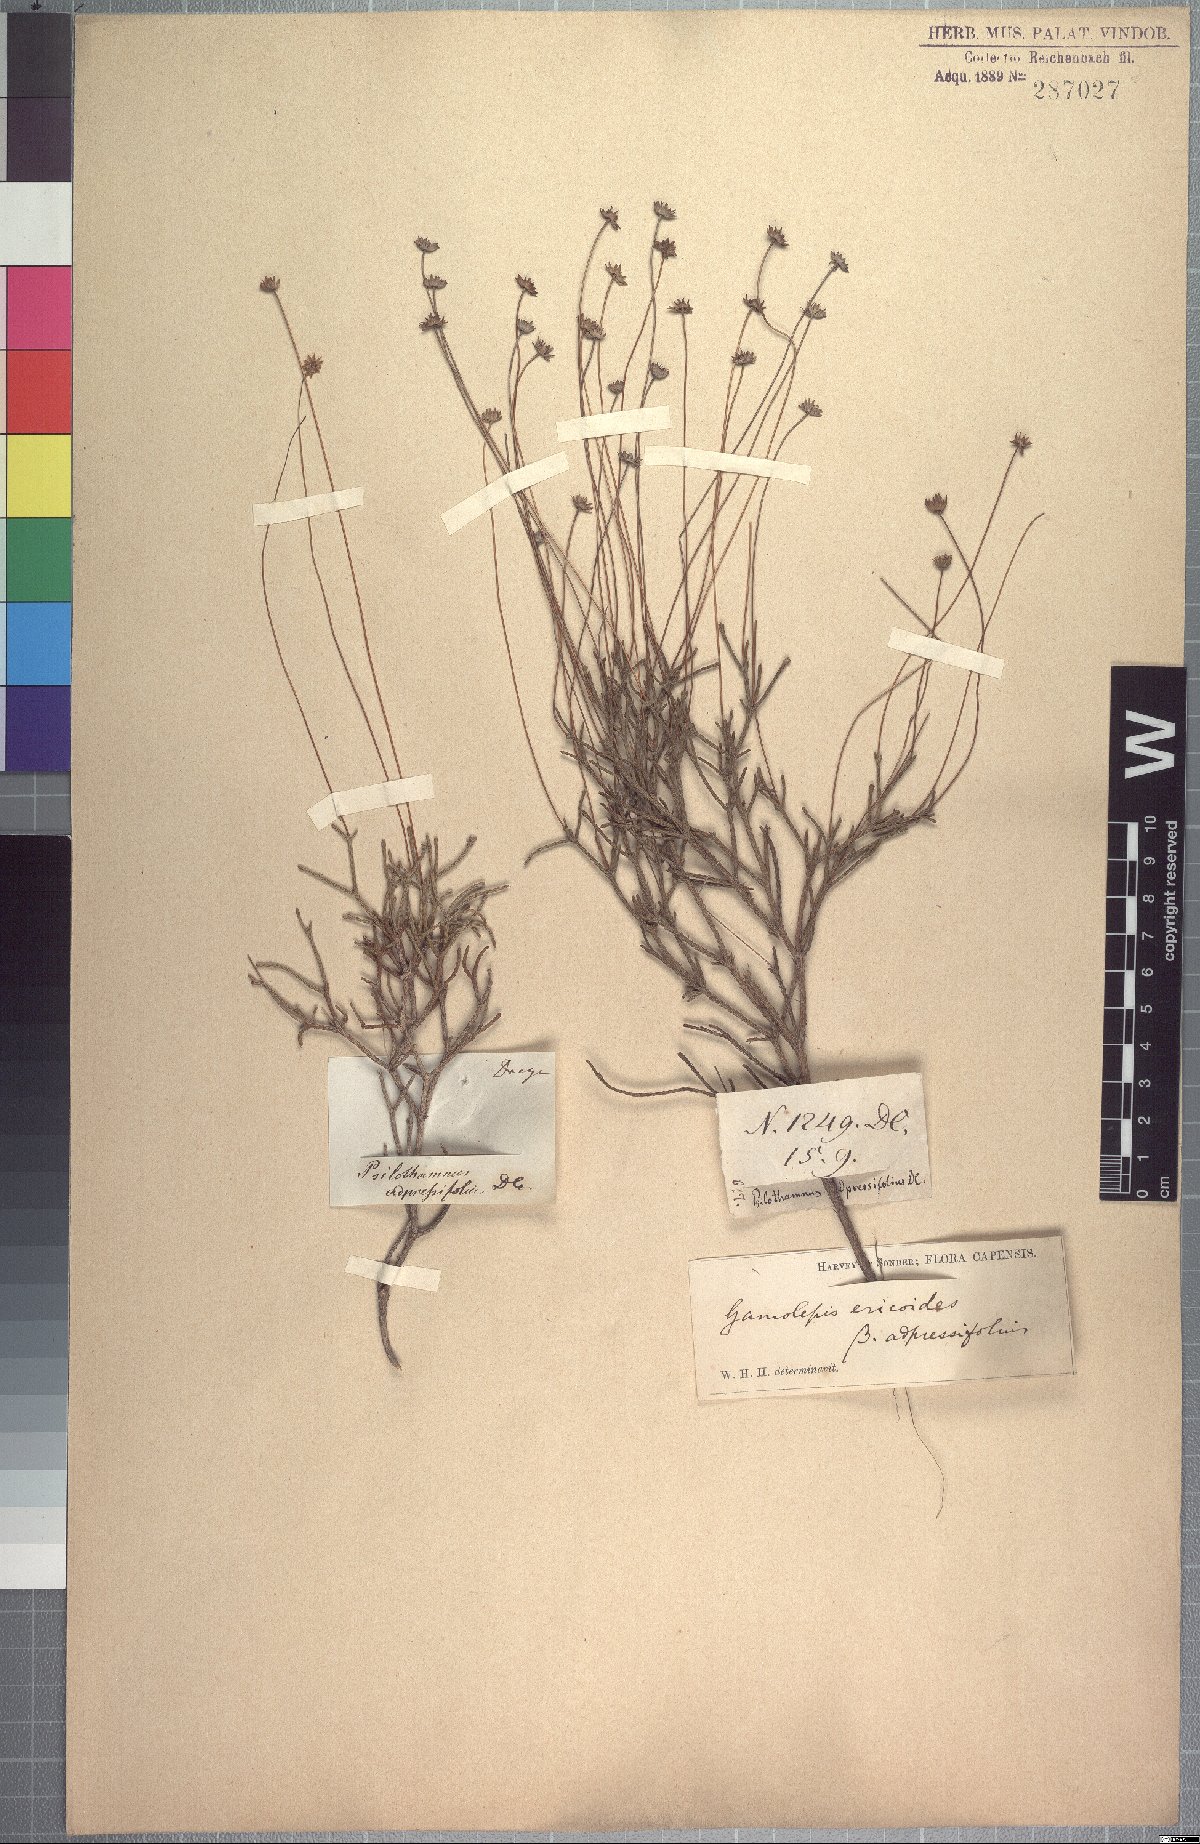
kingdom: Plantae
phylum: Tracheophyta
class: Magnoliopsida
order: Asterales
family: Asteraceae
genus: Euryops
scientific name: Euryops ericifolius
